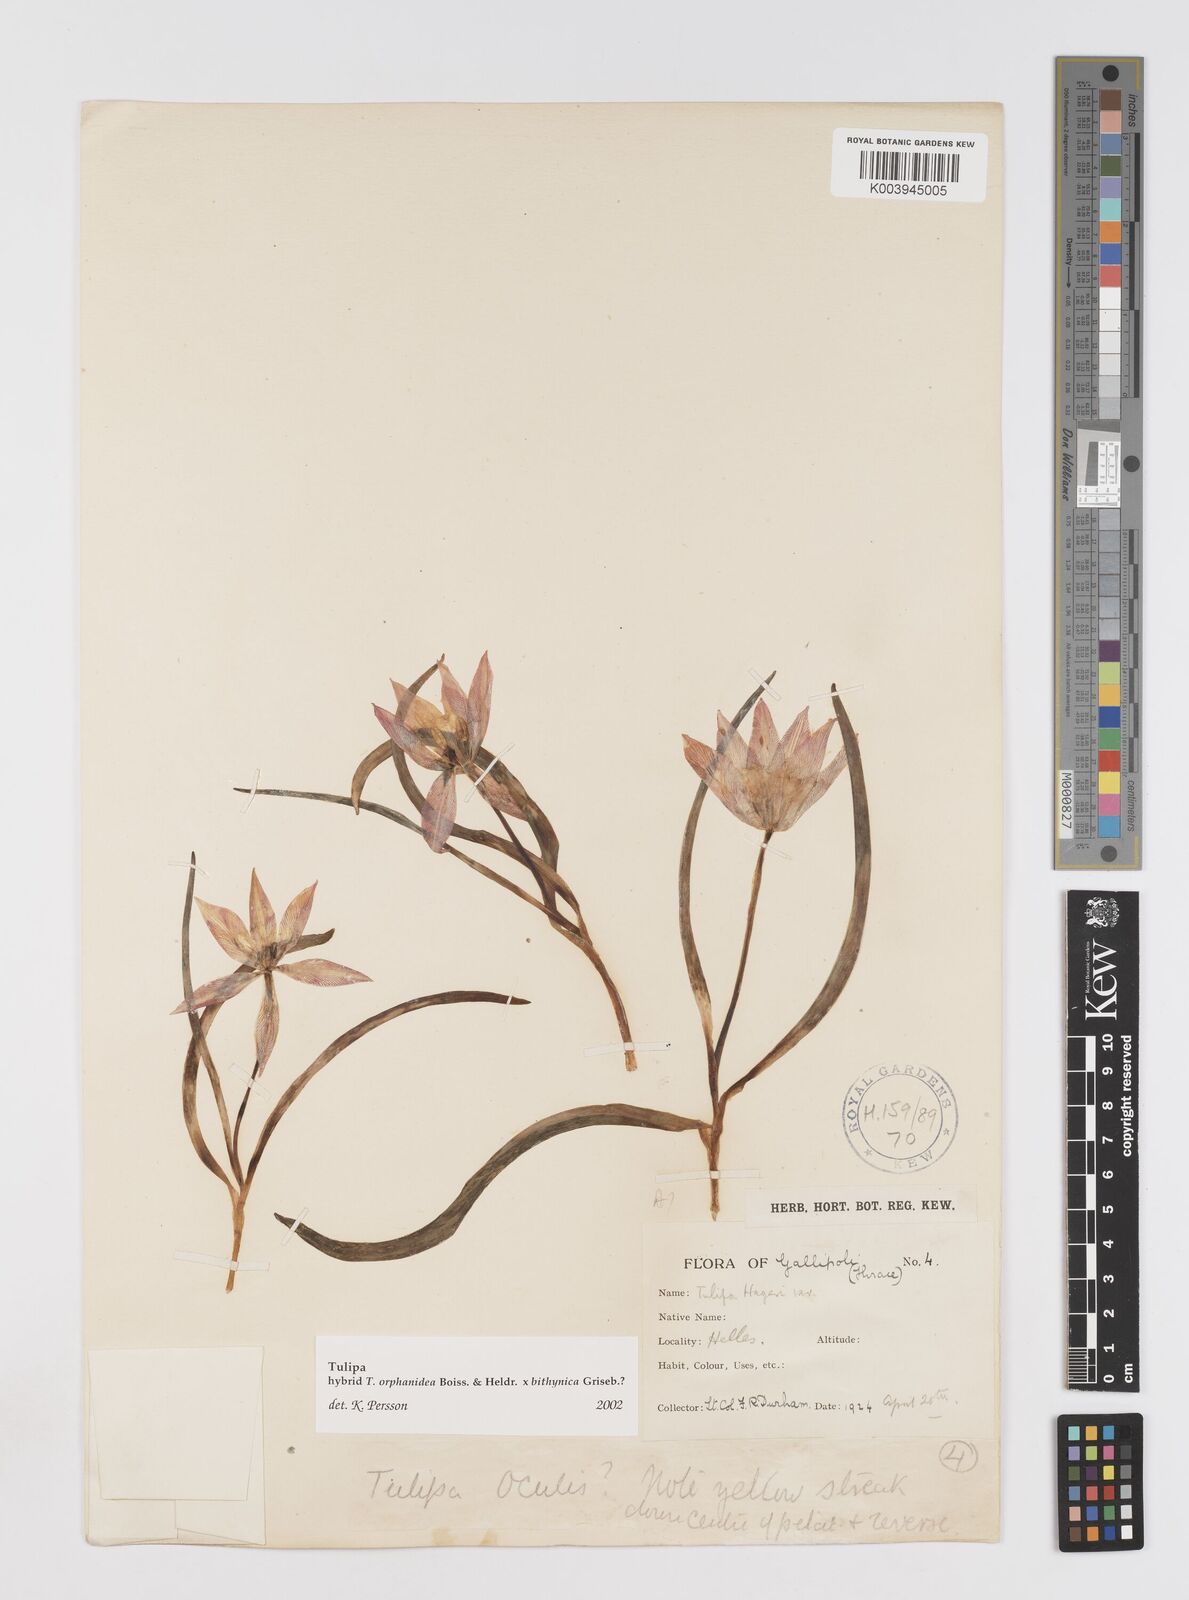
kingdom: Plantae
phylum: Tracheophyta
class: Liliopsida
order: Liliales
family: Liliaceae
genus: Tulipa
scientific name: Tulipa orphanidea
